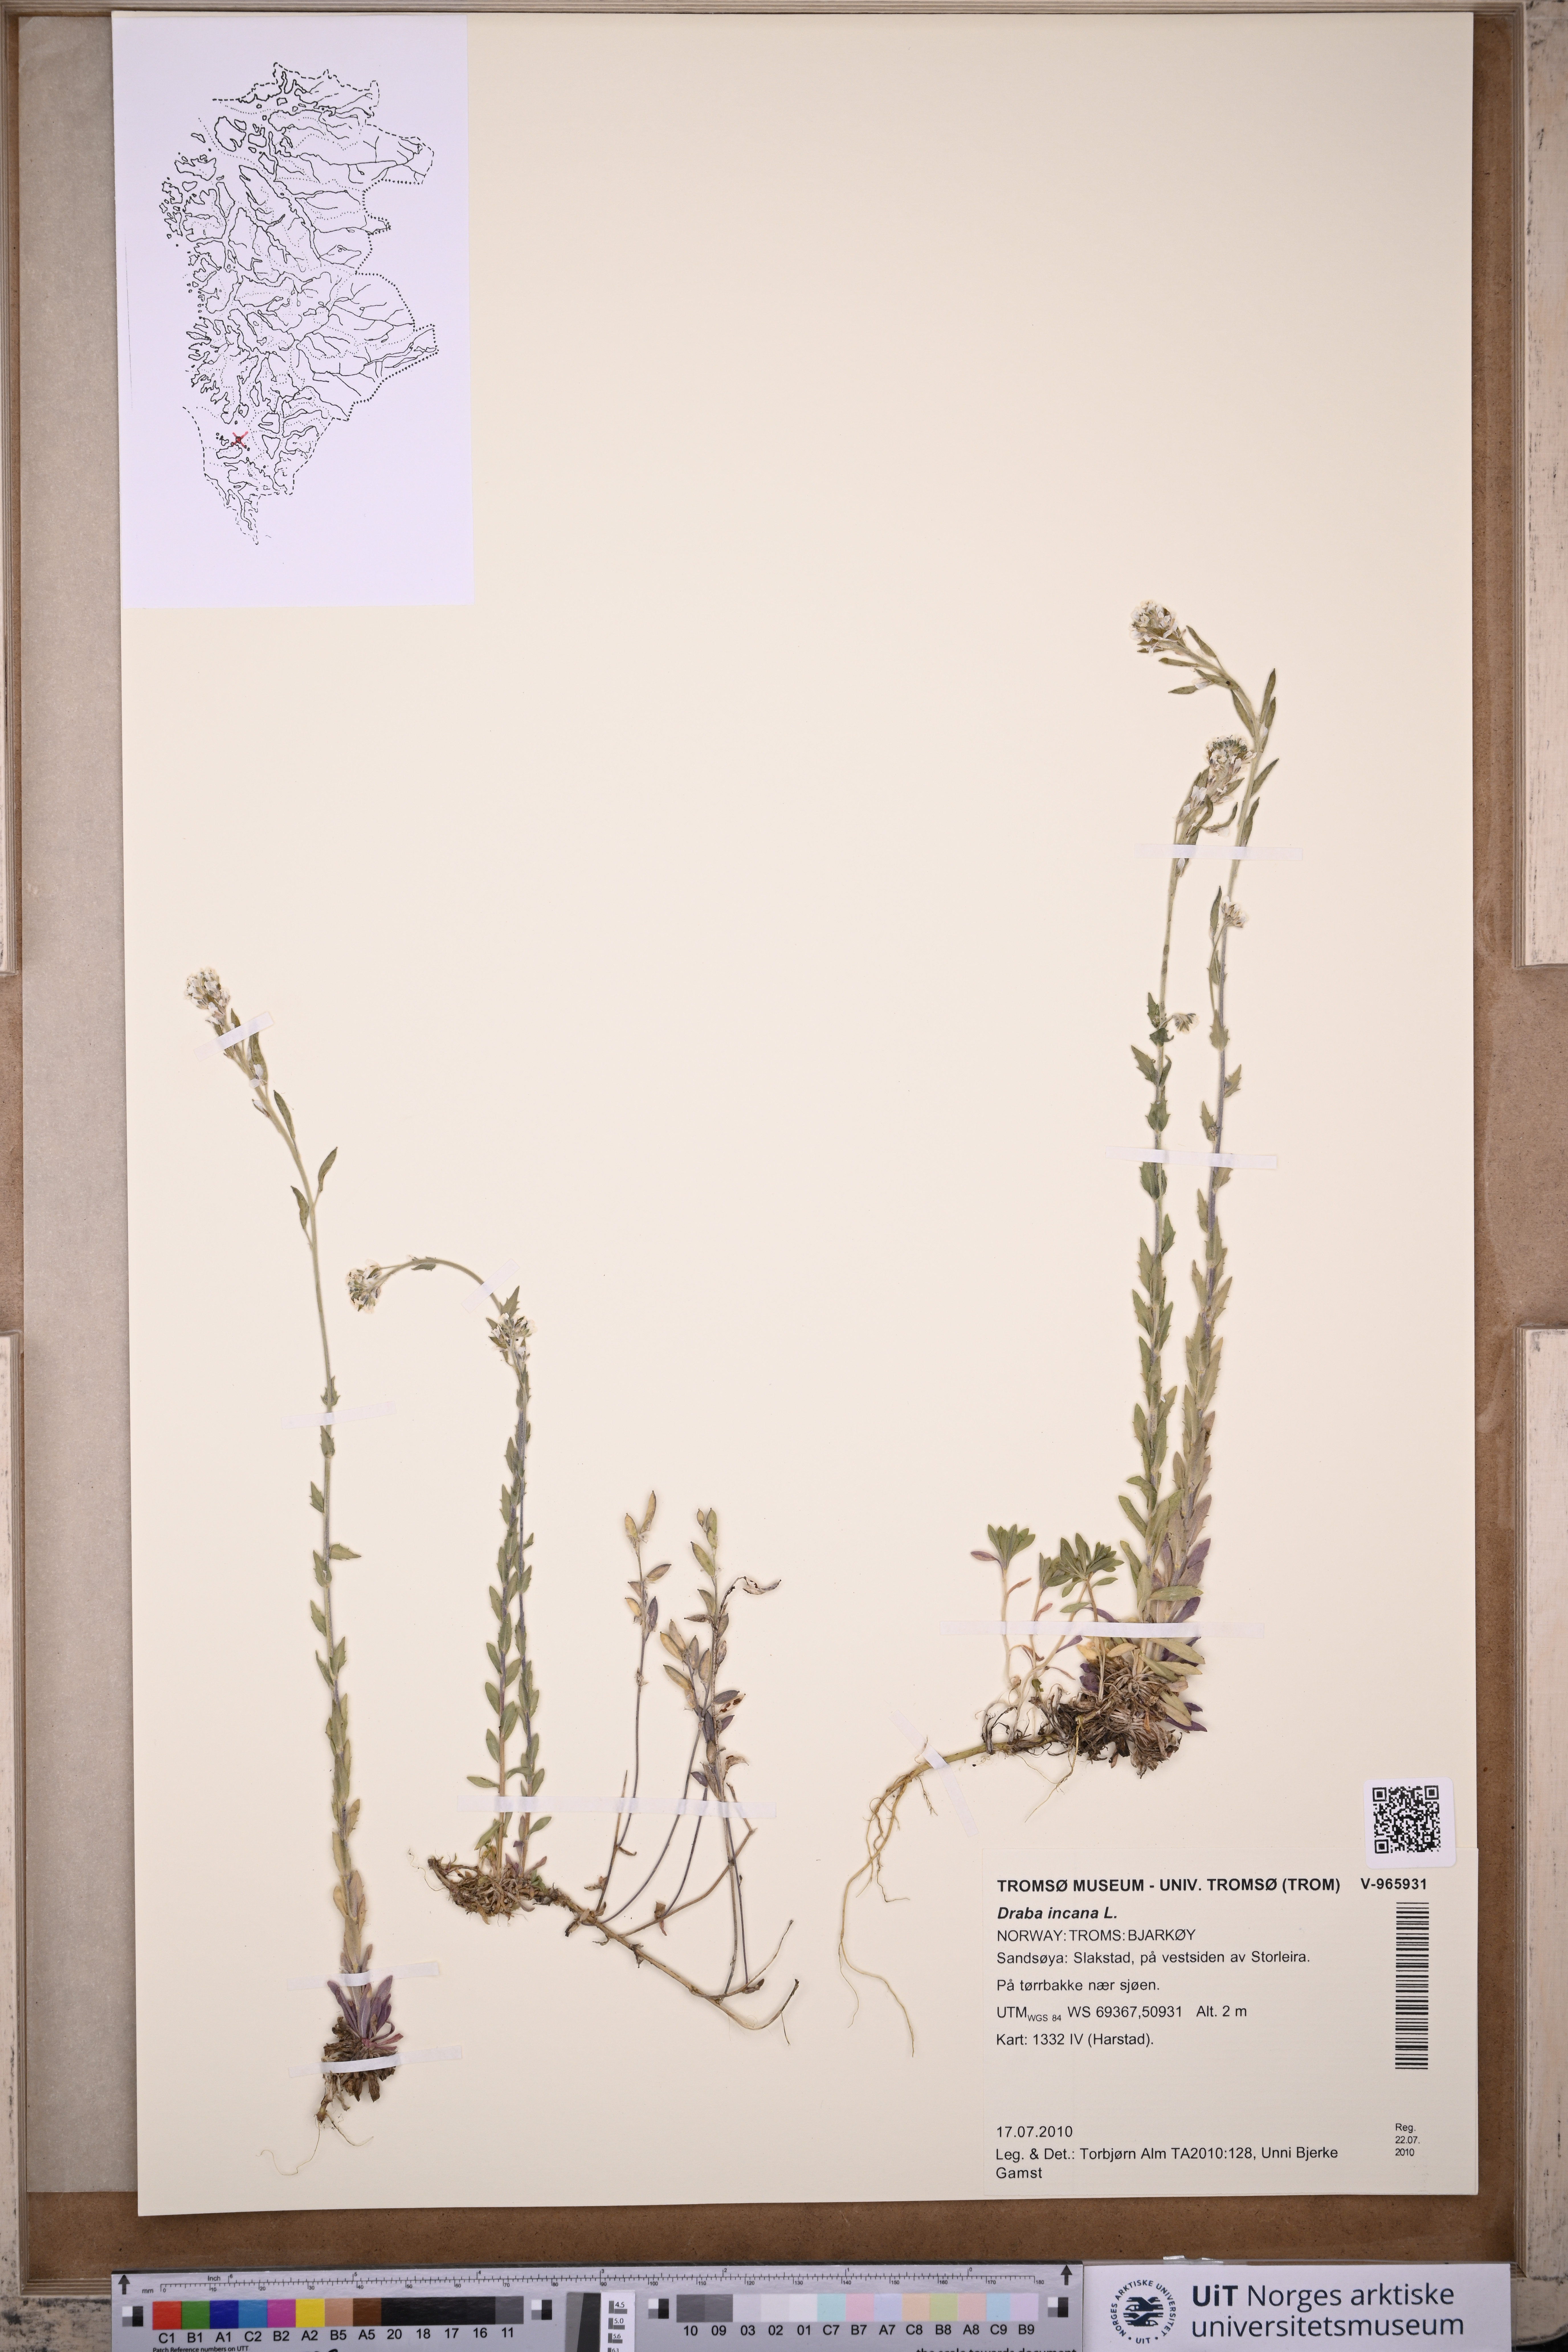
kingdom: Plantae
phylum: Tracheophyta
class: Magnoliopsida
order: Brassicales
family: Brassicaceae
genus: Draba
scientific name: Draba incana
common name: Hoary whitlow-grass
